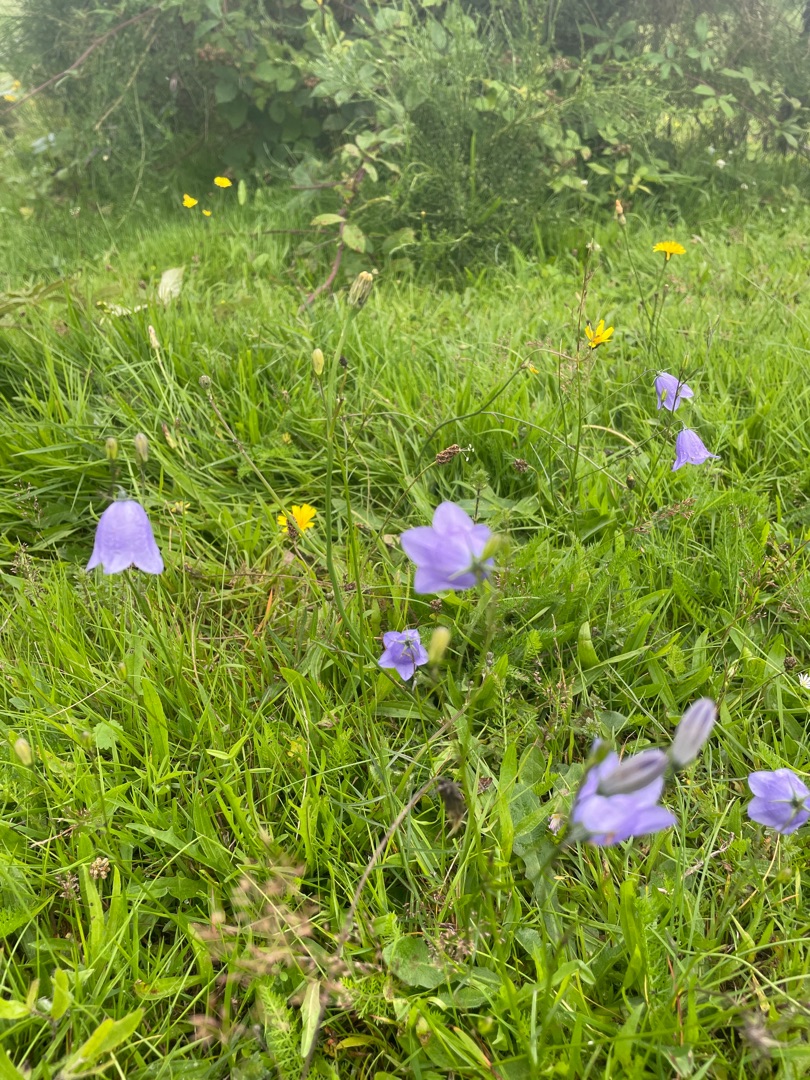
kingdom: Plantae
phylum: Tracheophyta
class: Magnoliopsida
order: Asterales
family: Campanulaceae
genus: Campanula
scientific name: Campanula rotundifolia
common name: Liden klokke
